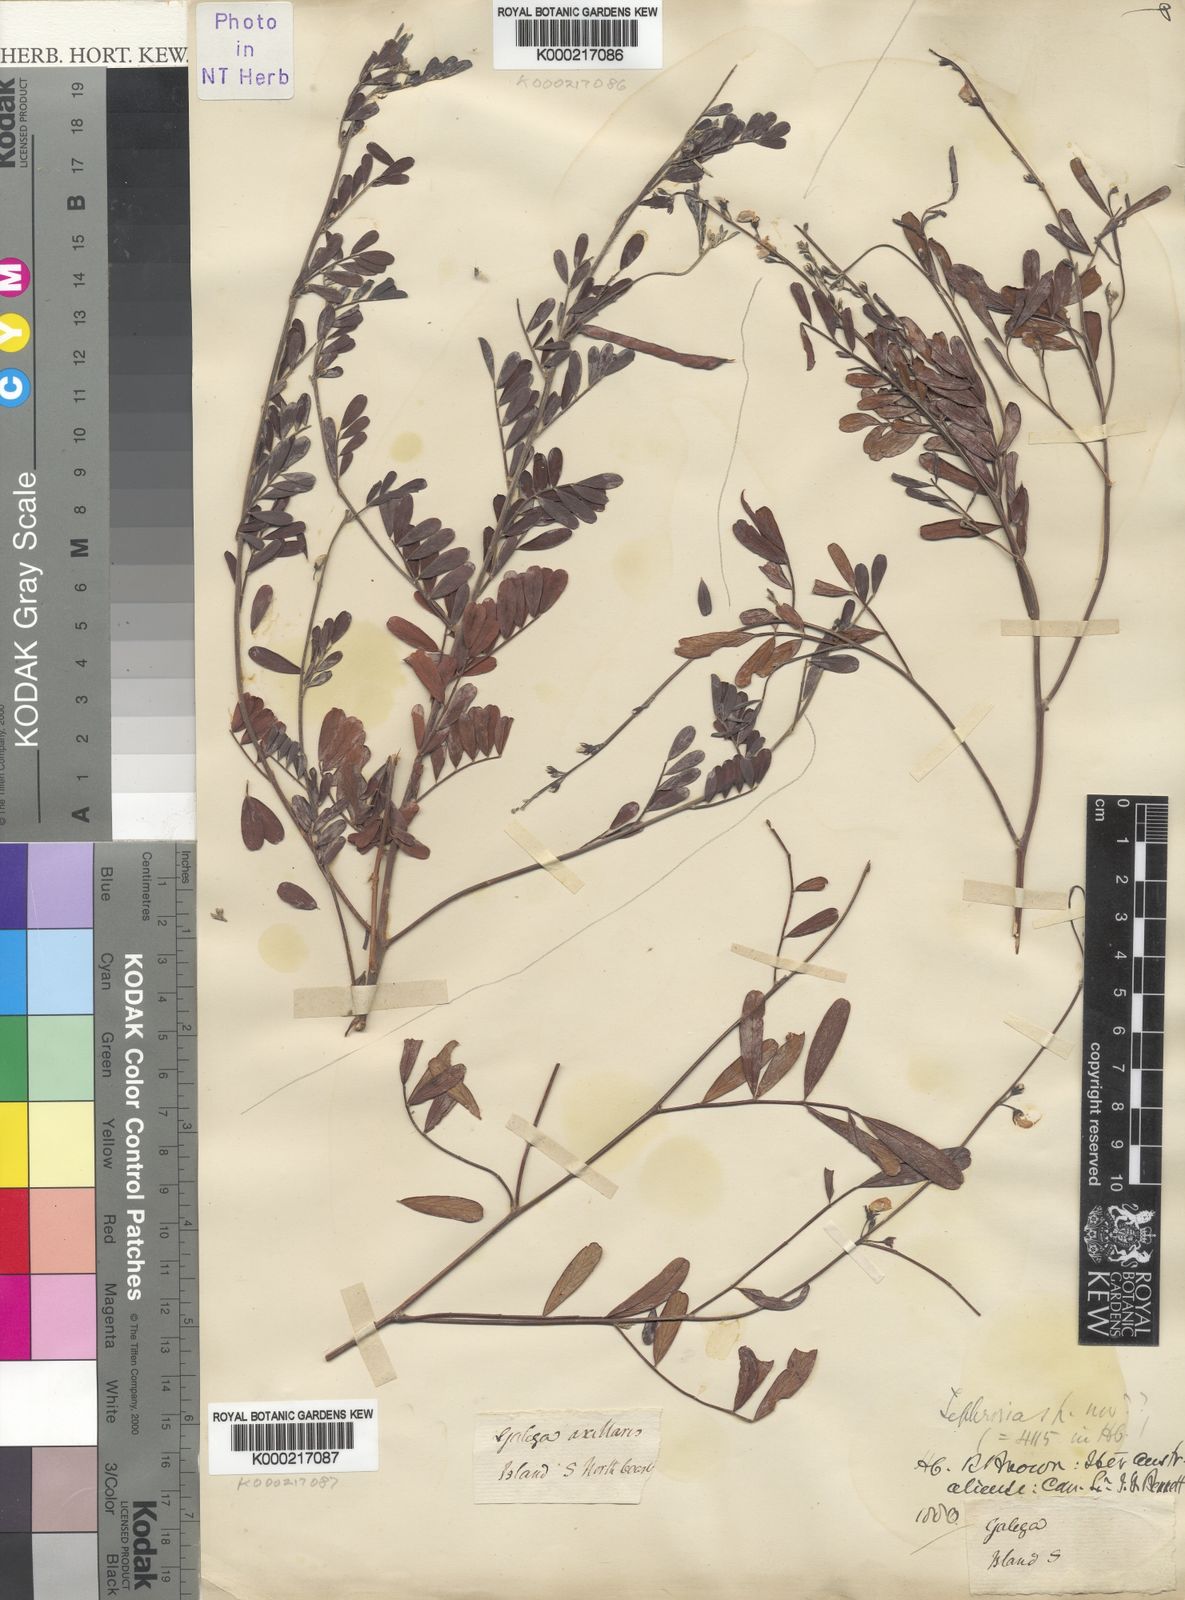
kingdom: Plantae
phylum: Tracheophyta
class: Magnoliopsida
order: Fabales
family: Fabaceae
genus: Tephrosia
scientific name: Tephrosia
